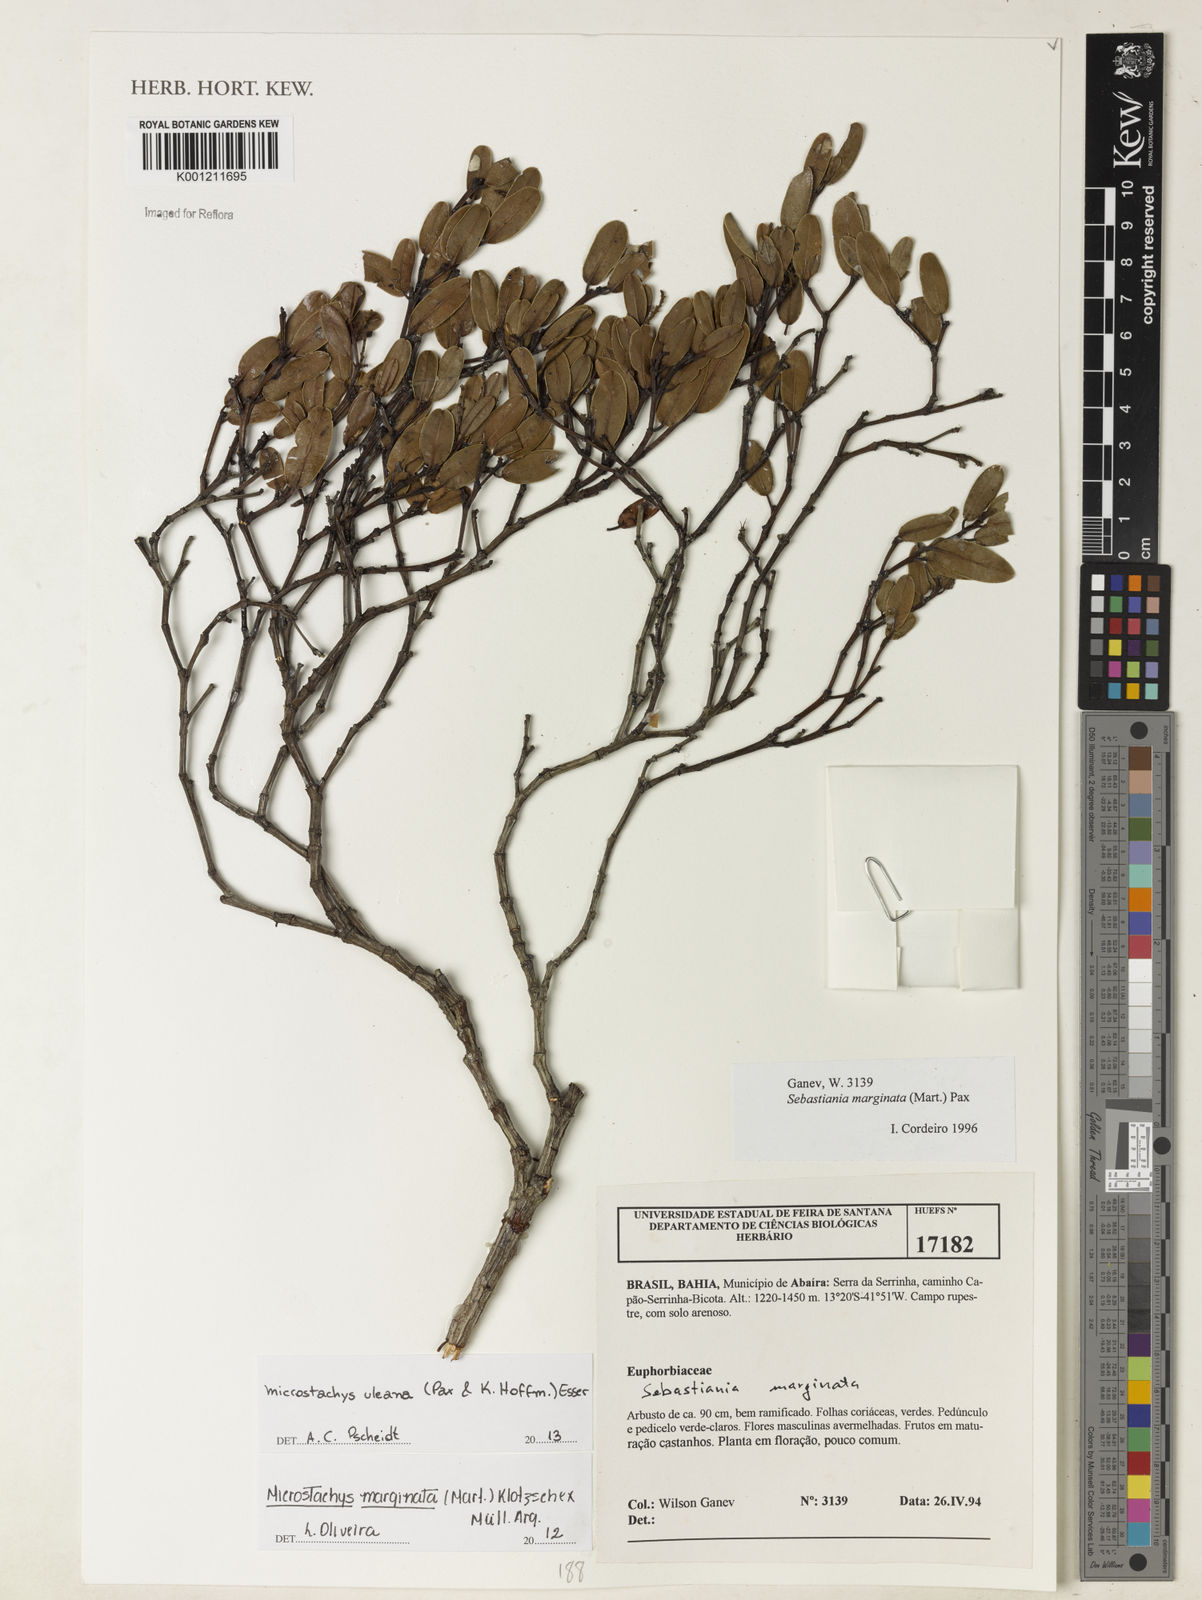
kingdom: Plantae
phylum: Tracheophyta
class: Magnoliopsida
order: Malpighiales
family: Euphorbiaceae
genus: Microstachys
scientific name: Microstachys uleana
